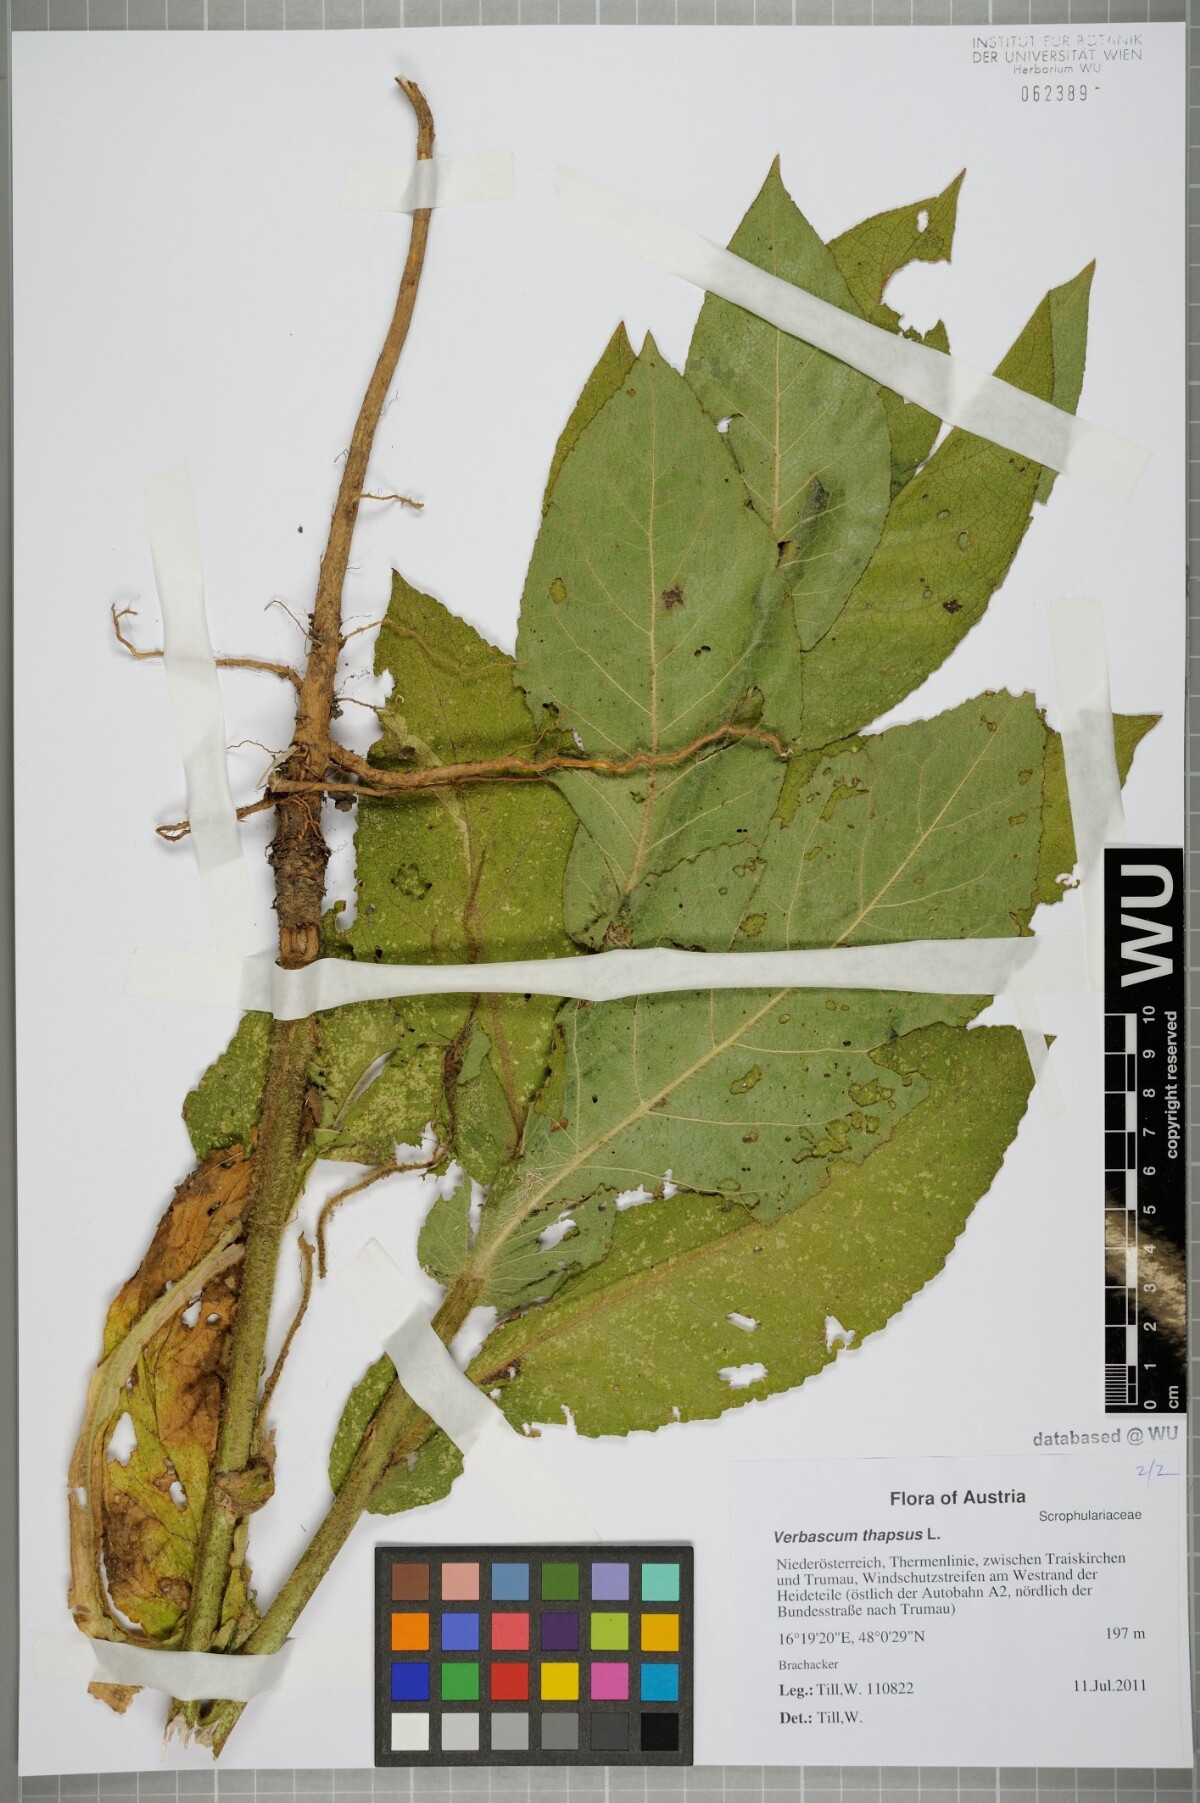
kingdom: Plantae
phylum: Tracheophyta
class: Magnoliopsida
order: Lamiales
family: Scrophulariaceae
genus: Verbascum
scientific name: Verbascum thapsus
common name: Common mullein
